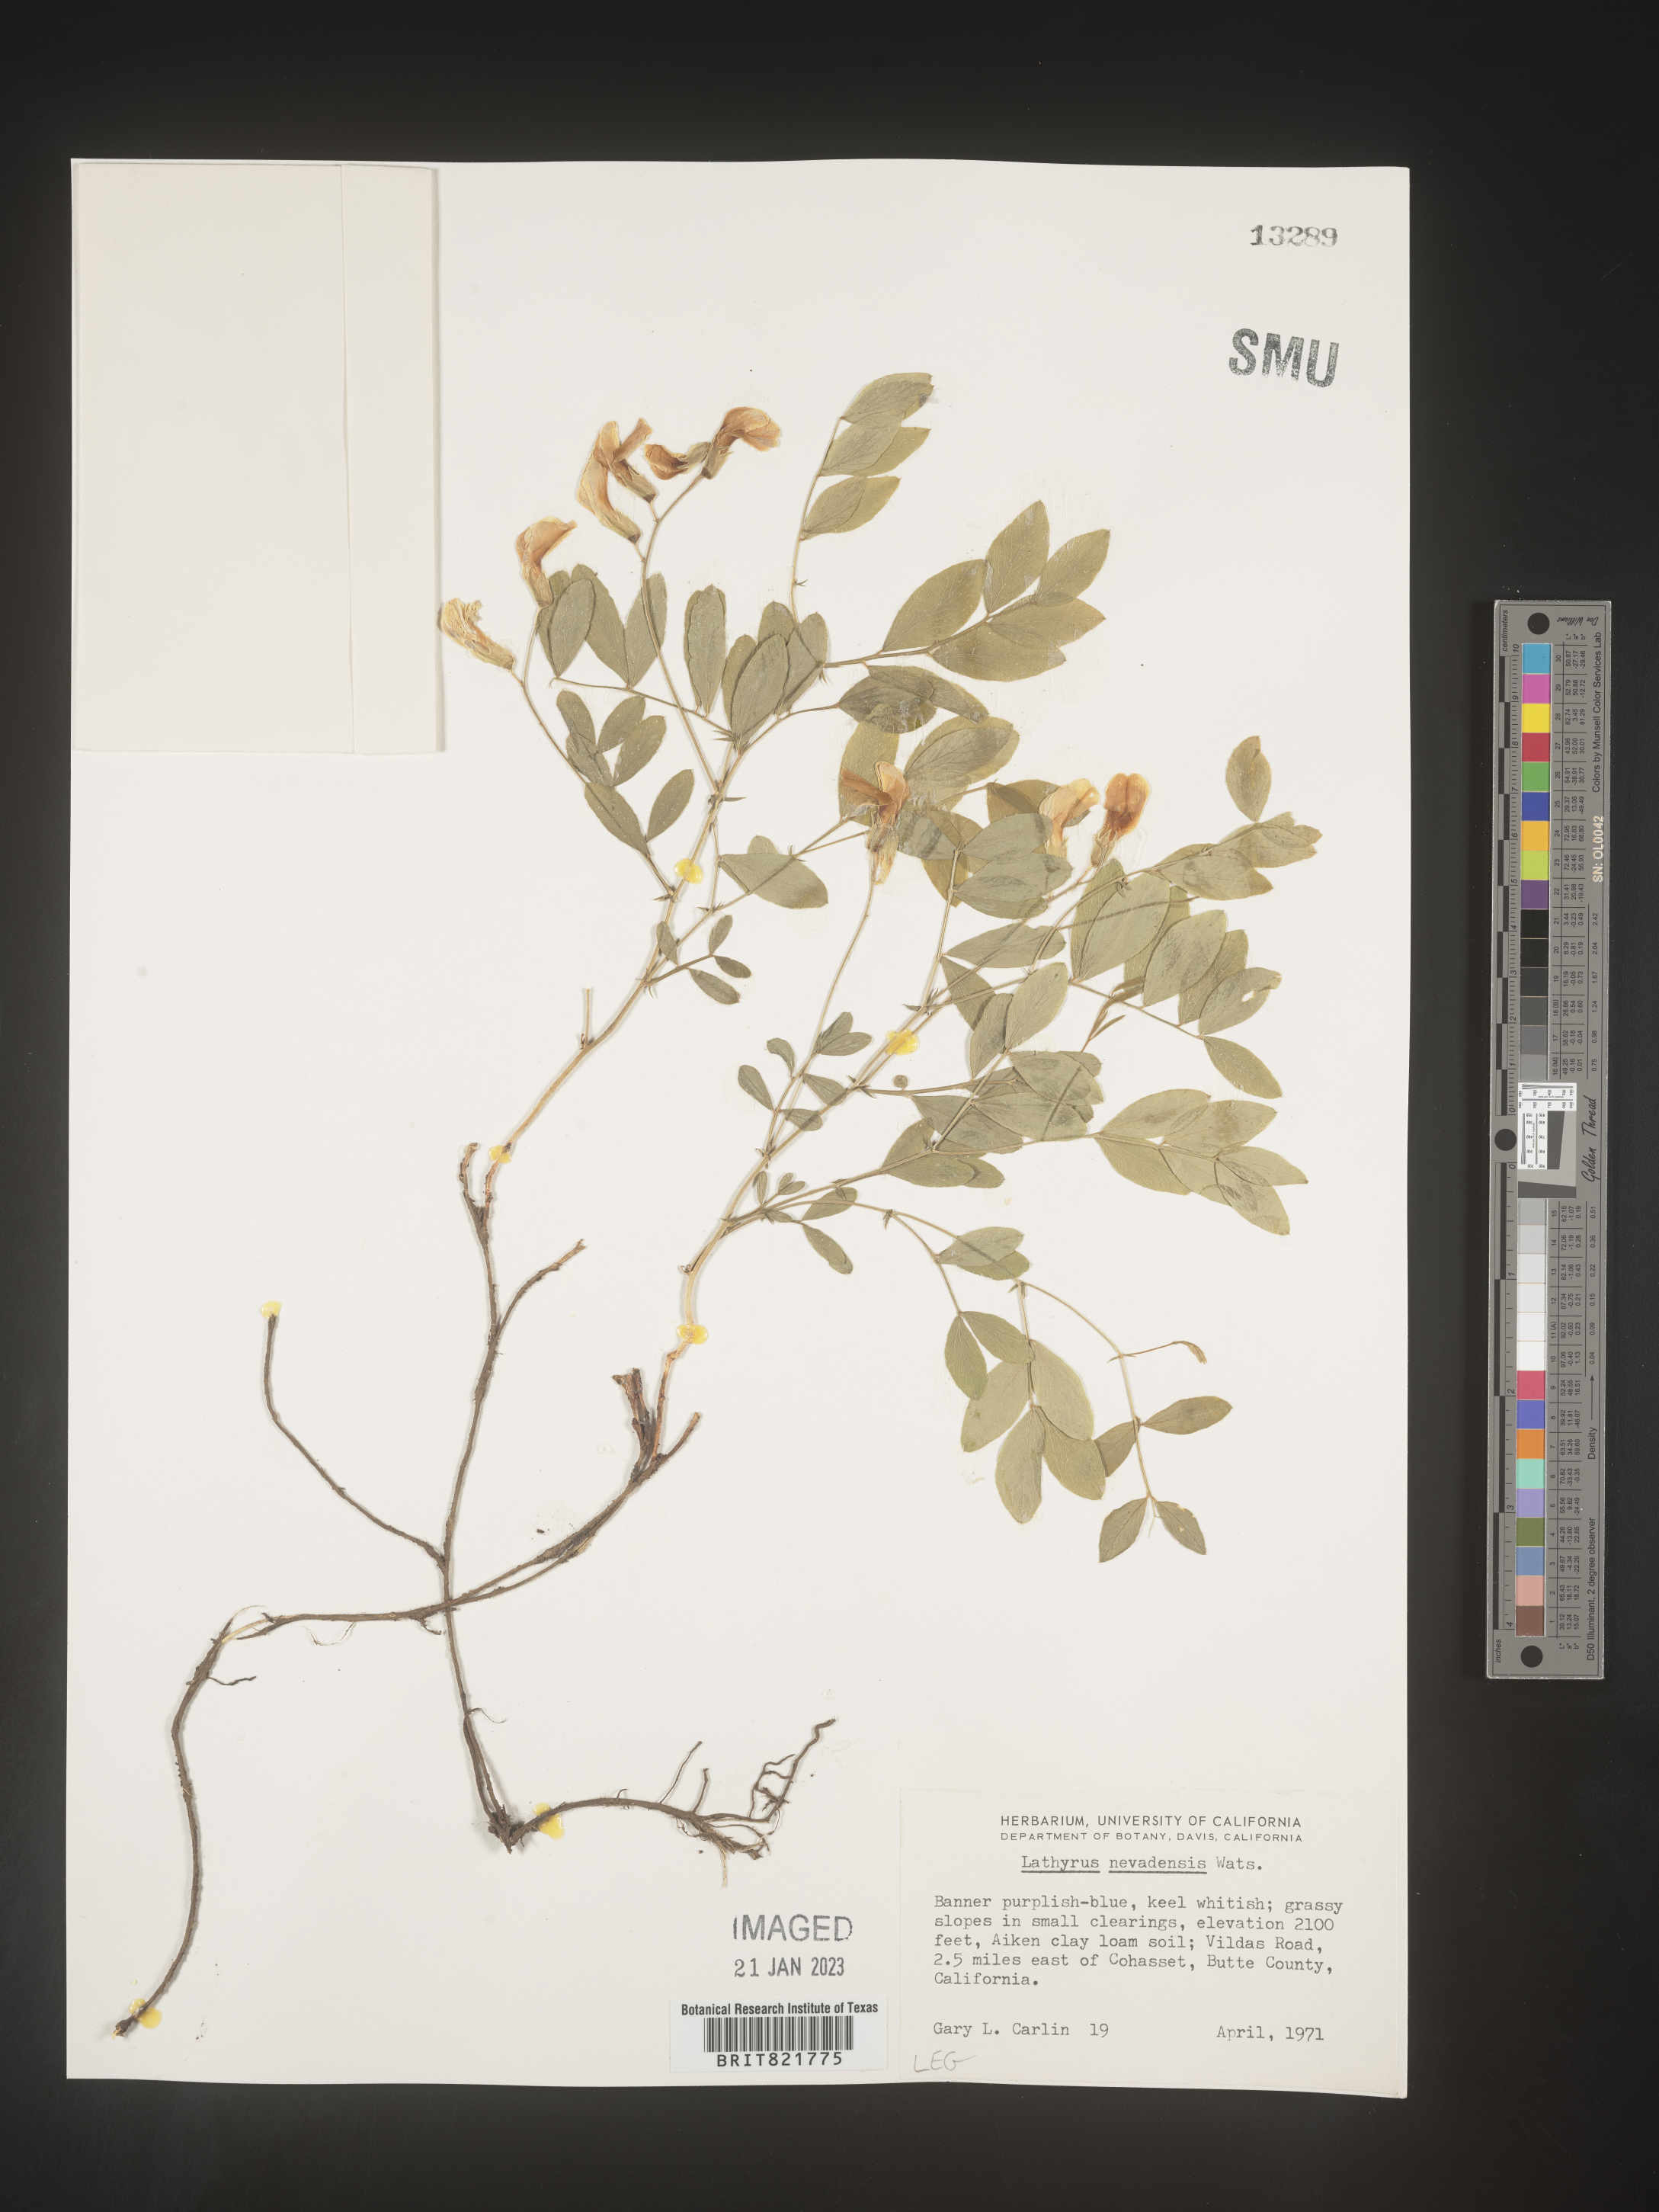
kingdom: Plantae
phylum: Tracheophyta
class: Magnoliopsida
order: Fabales
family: Fabaceae
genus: Lathyrus
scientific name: Lathyrus
